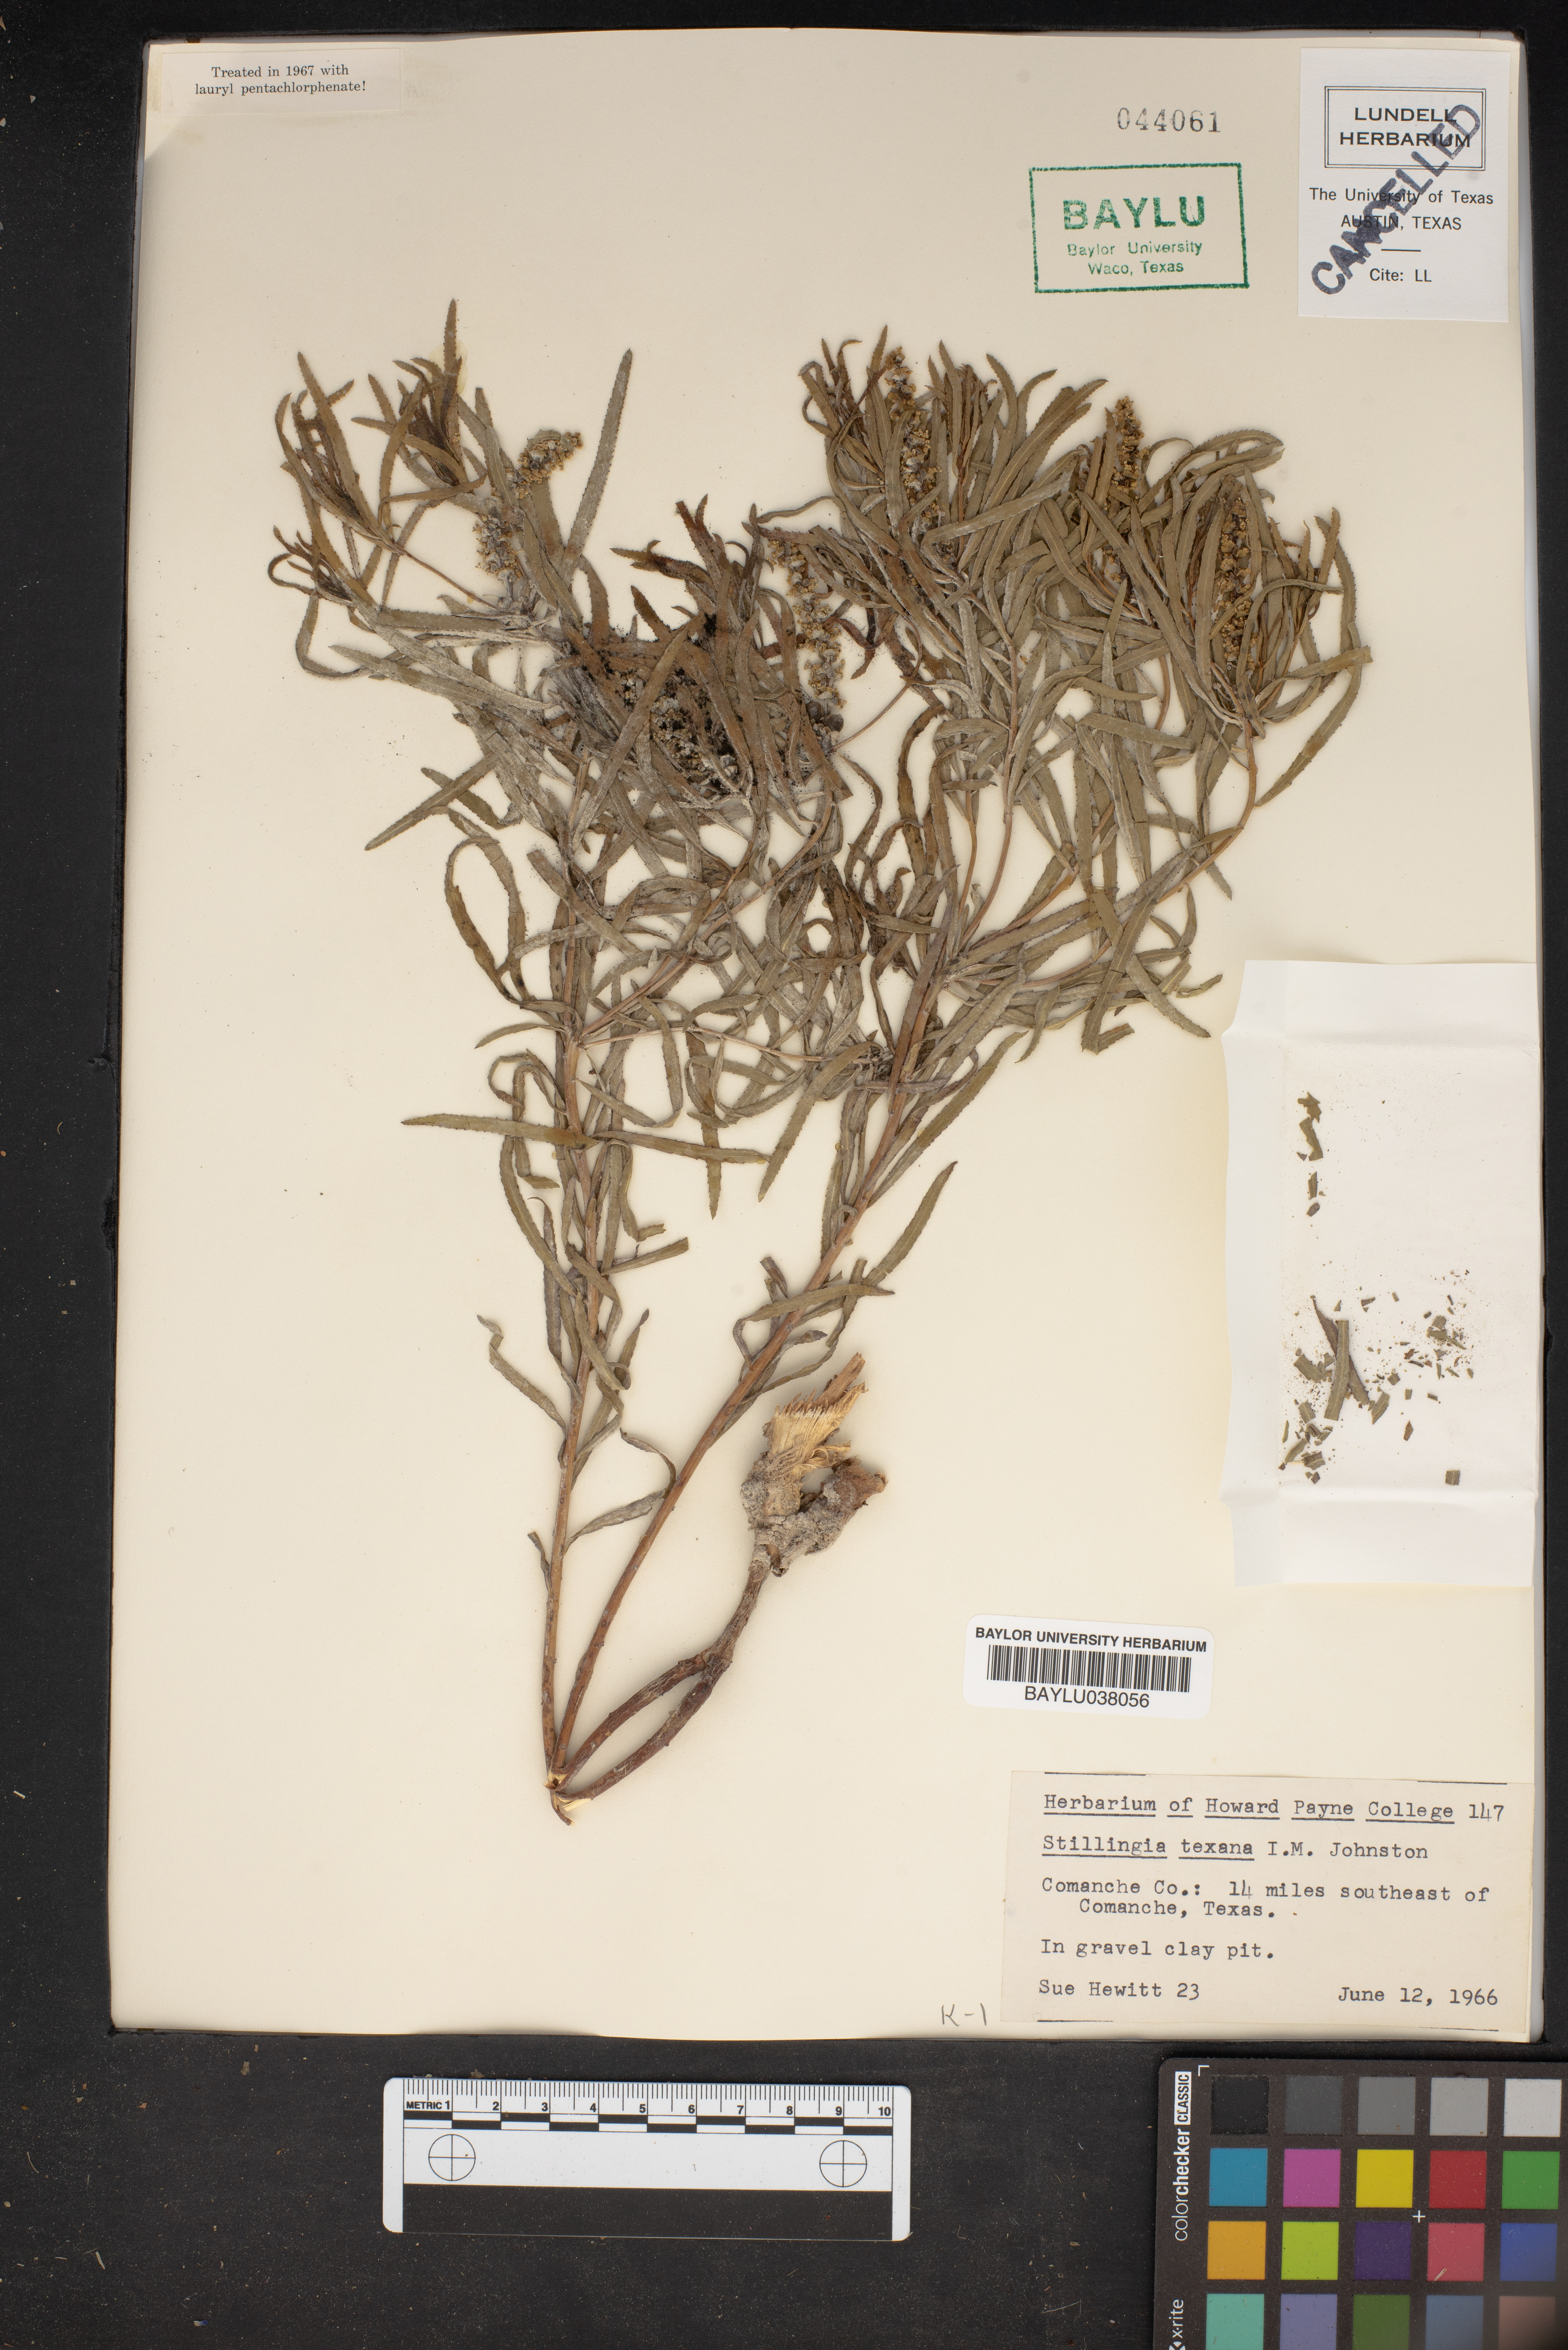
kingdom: Plantae
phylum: Tracheophyta
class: Magnoliopsida
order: Malpighiales
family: Euphorbiaceae
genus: Stillingia
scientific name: Stillingia texana
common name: Texas stillingia
